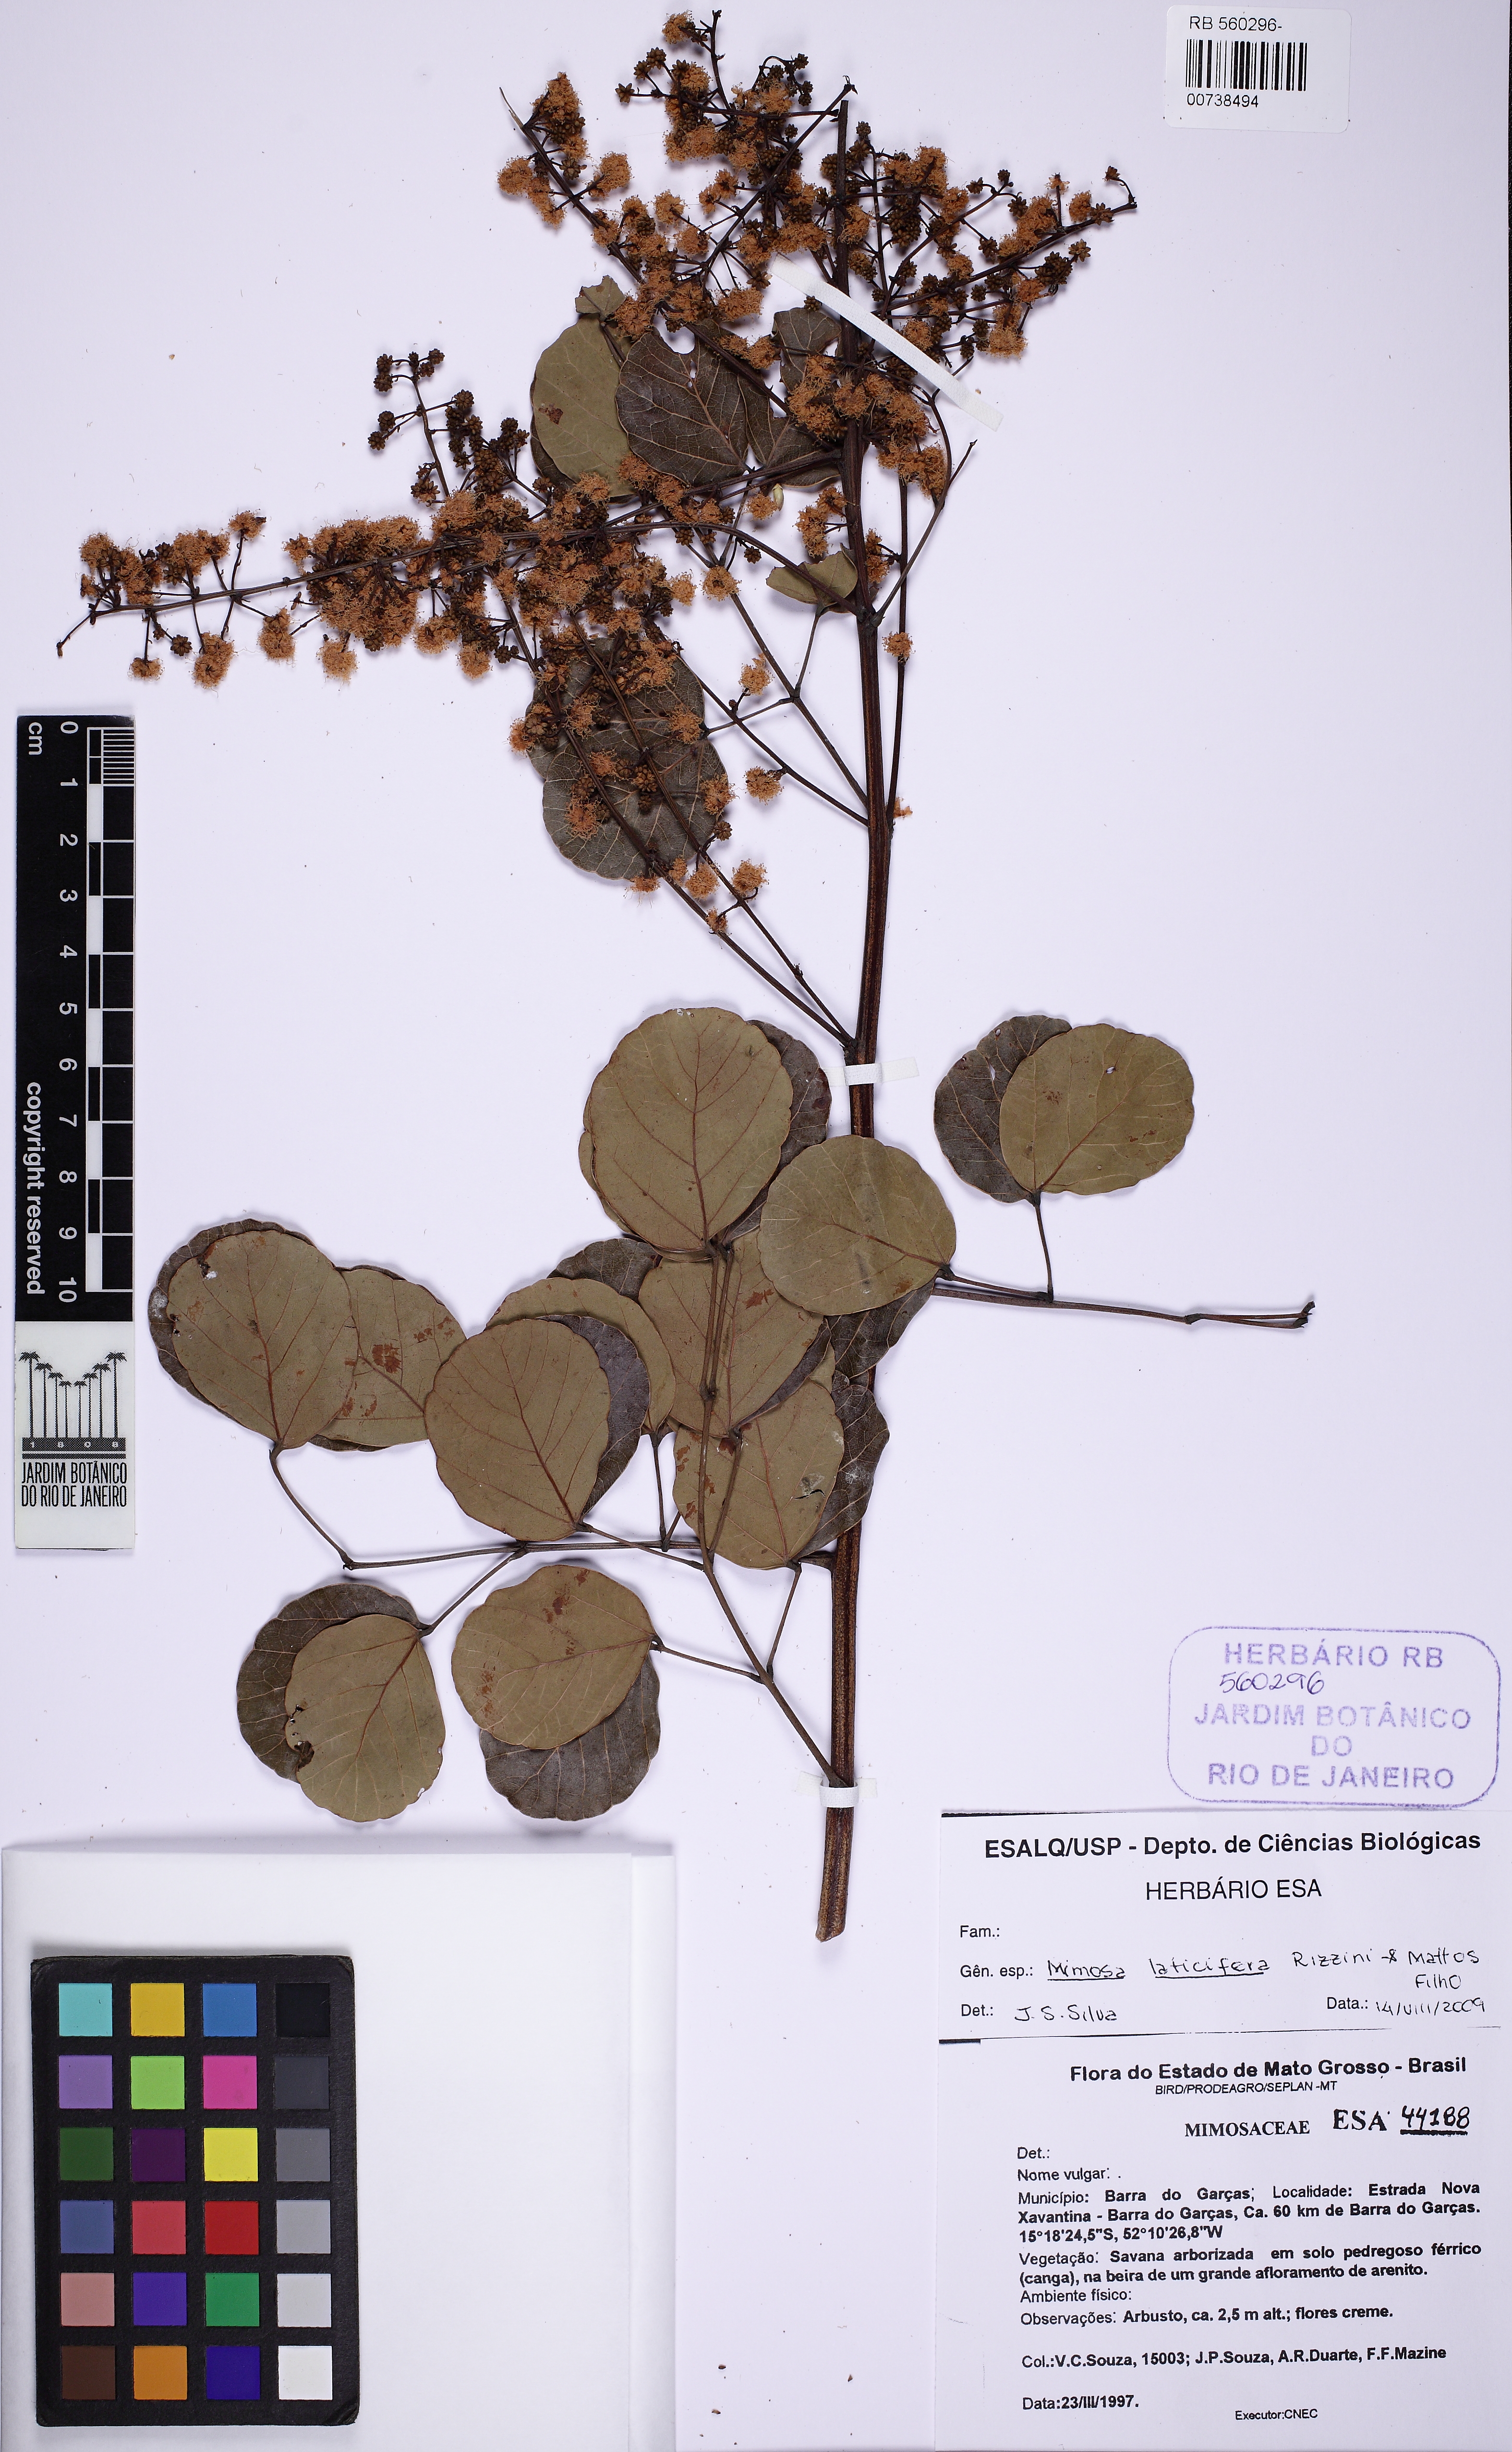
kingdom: Plantae
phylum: Tracheophyta
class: Magnoliopsida
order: Fabales
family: Fabaceae
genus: Mimosa
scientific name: Mimosa laticifera
